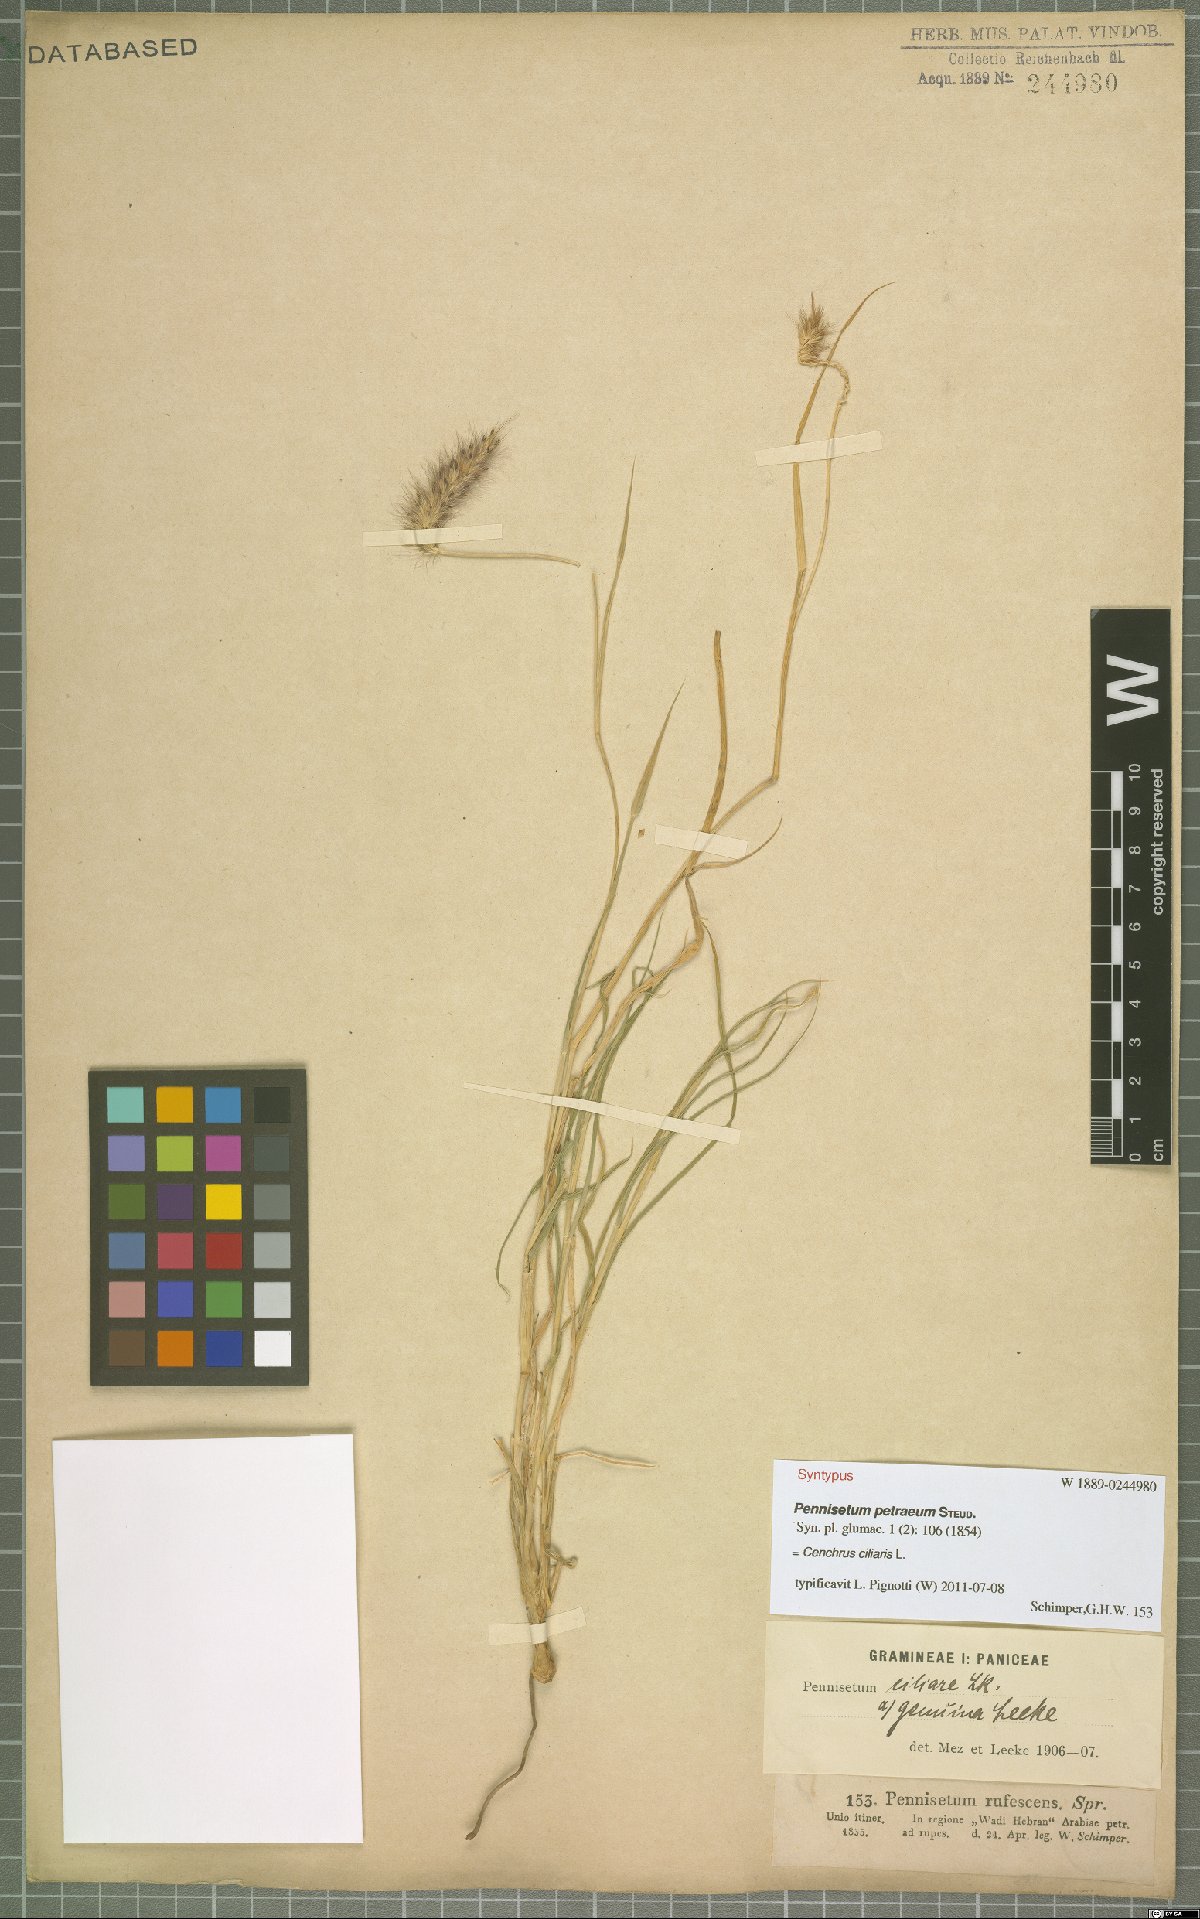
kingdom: Plantae
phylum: Tracheophyta
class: Liliopsida
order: Poales
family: Poaceae
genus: Cenchrus
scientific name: Cenchrus ciliaris
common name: Buffelgrass
